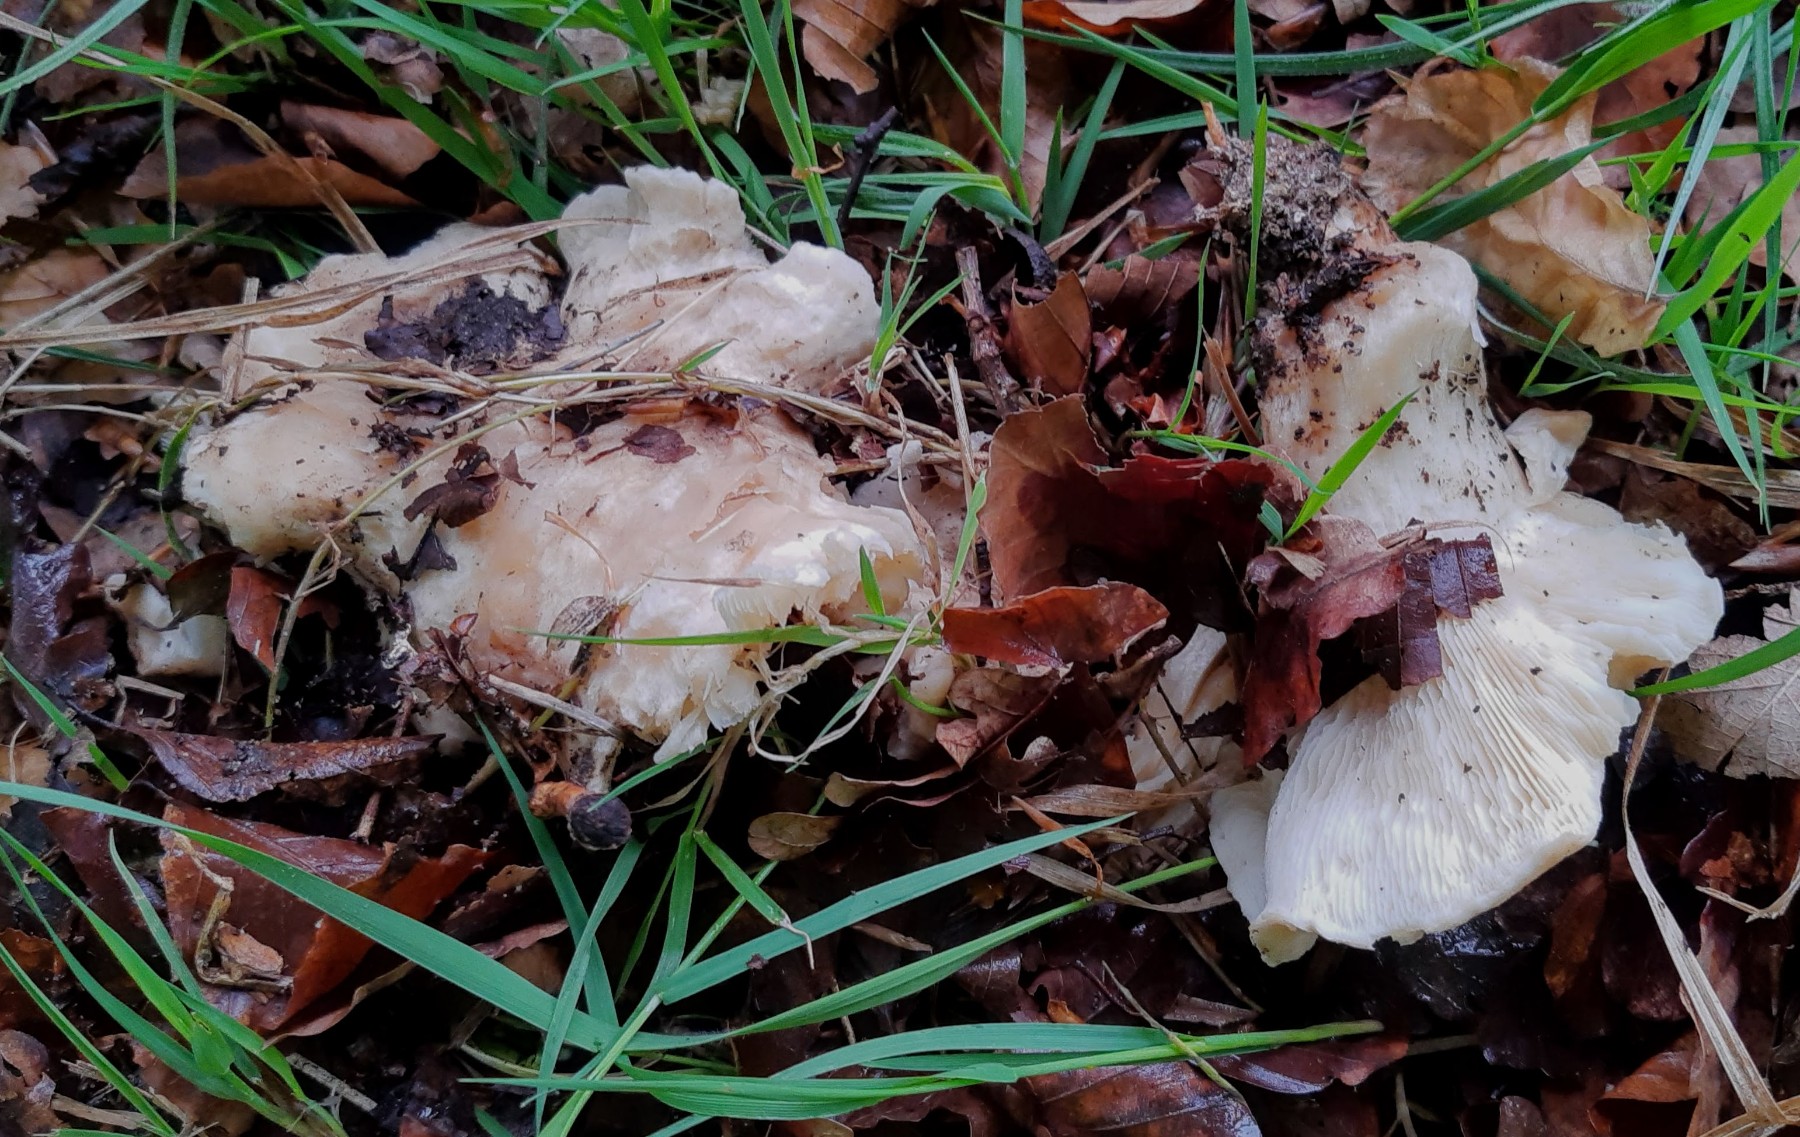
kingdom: Fungi
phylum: Basidiomycota
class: Agaricomycetes
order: Agaricales
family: Lyophyllaceae
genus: Calocybe
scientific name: Calocybe gambosa
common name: vårmusseron
